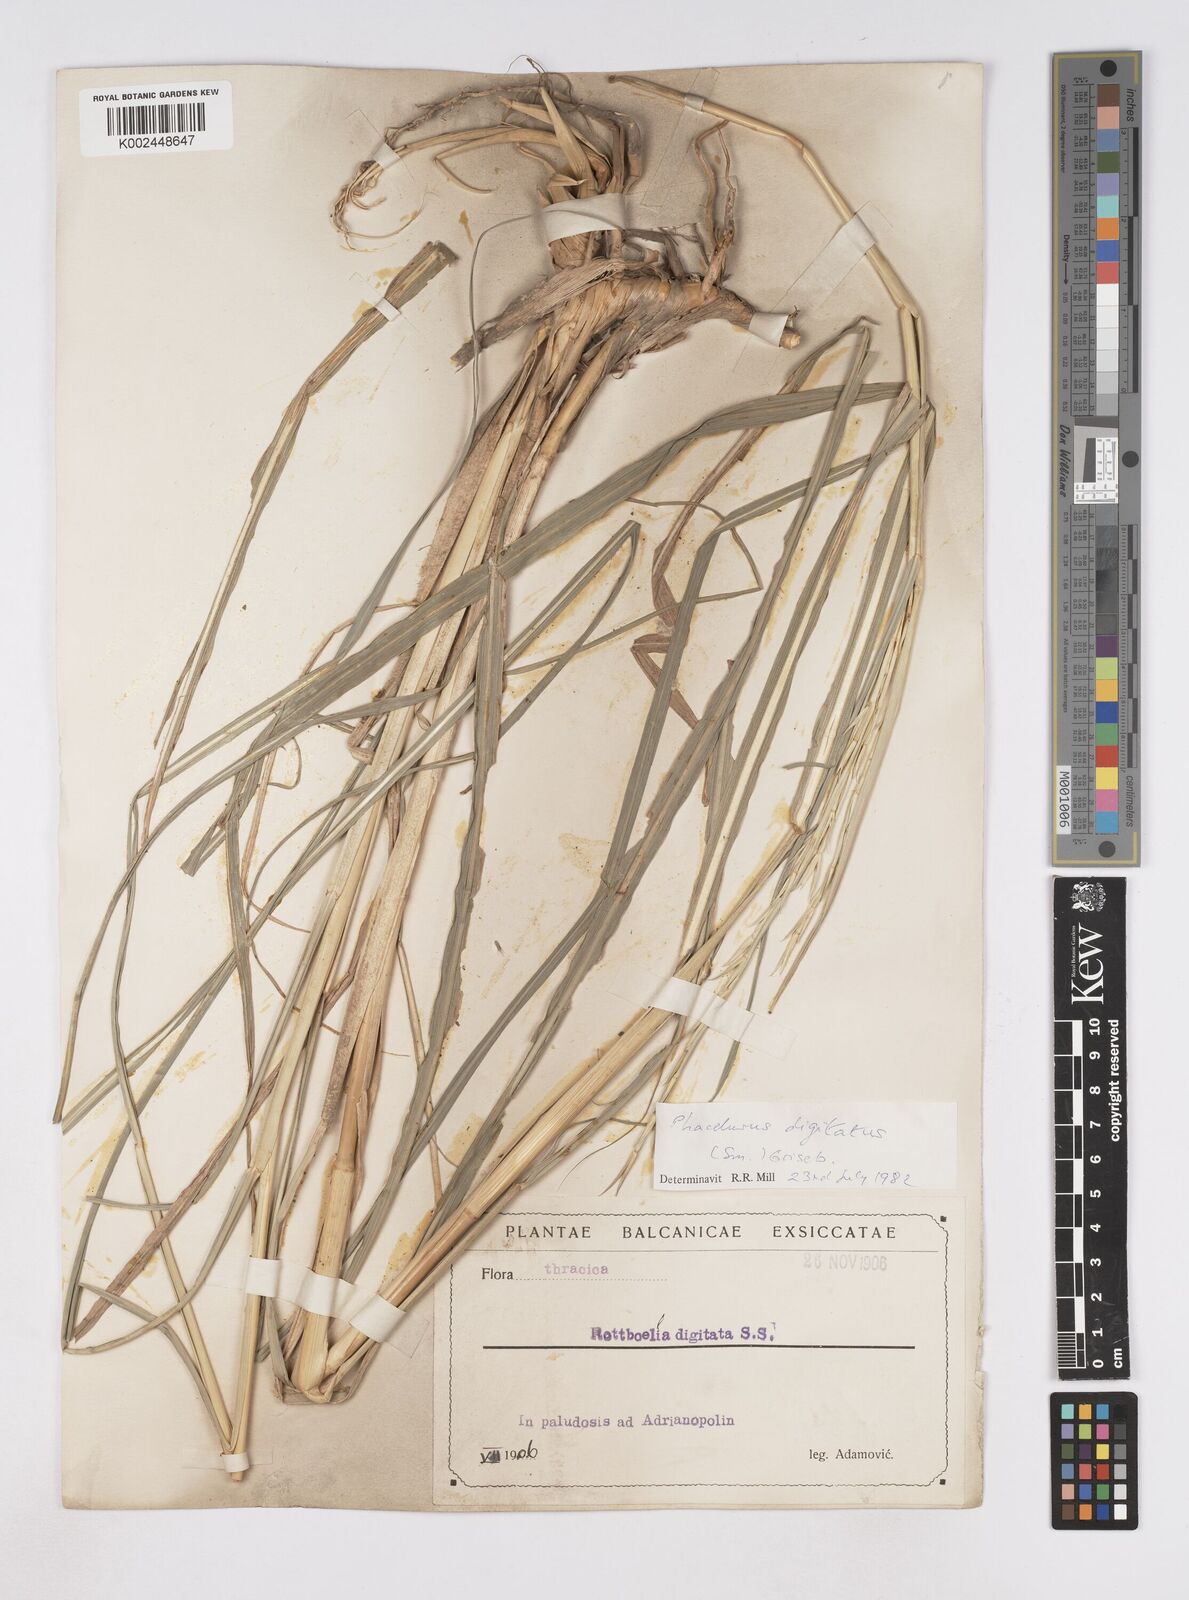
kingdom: Plantae
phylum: Tracheophyta
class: Liliopsida
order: Poales
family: Poaceae
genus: Phacelurus
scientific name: Phacelurus digitatus
